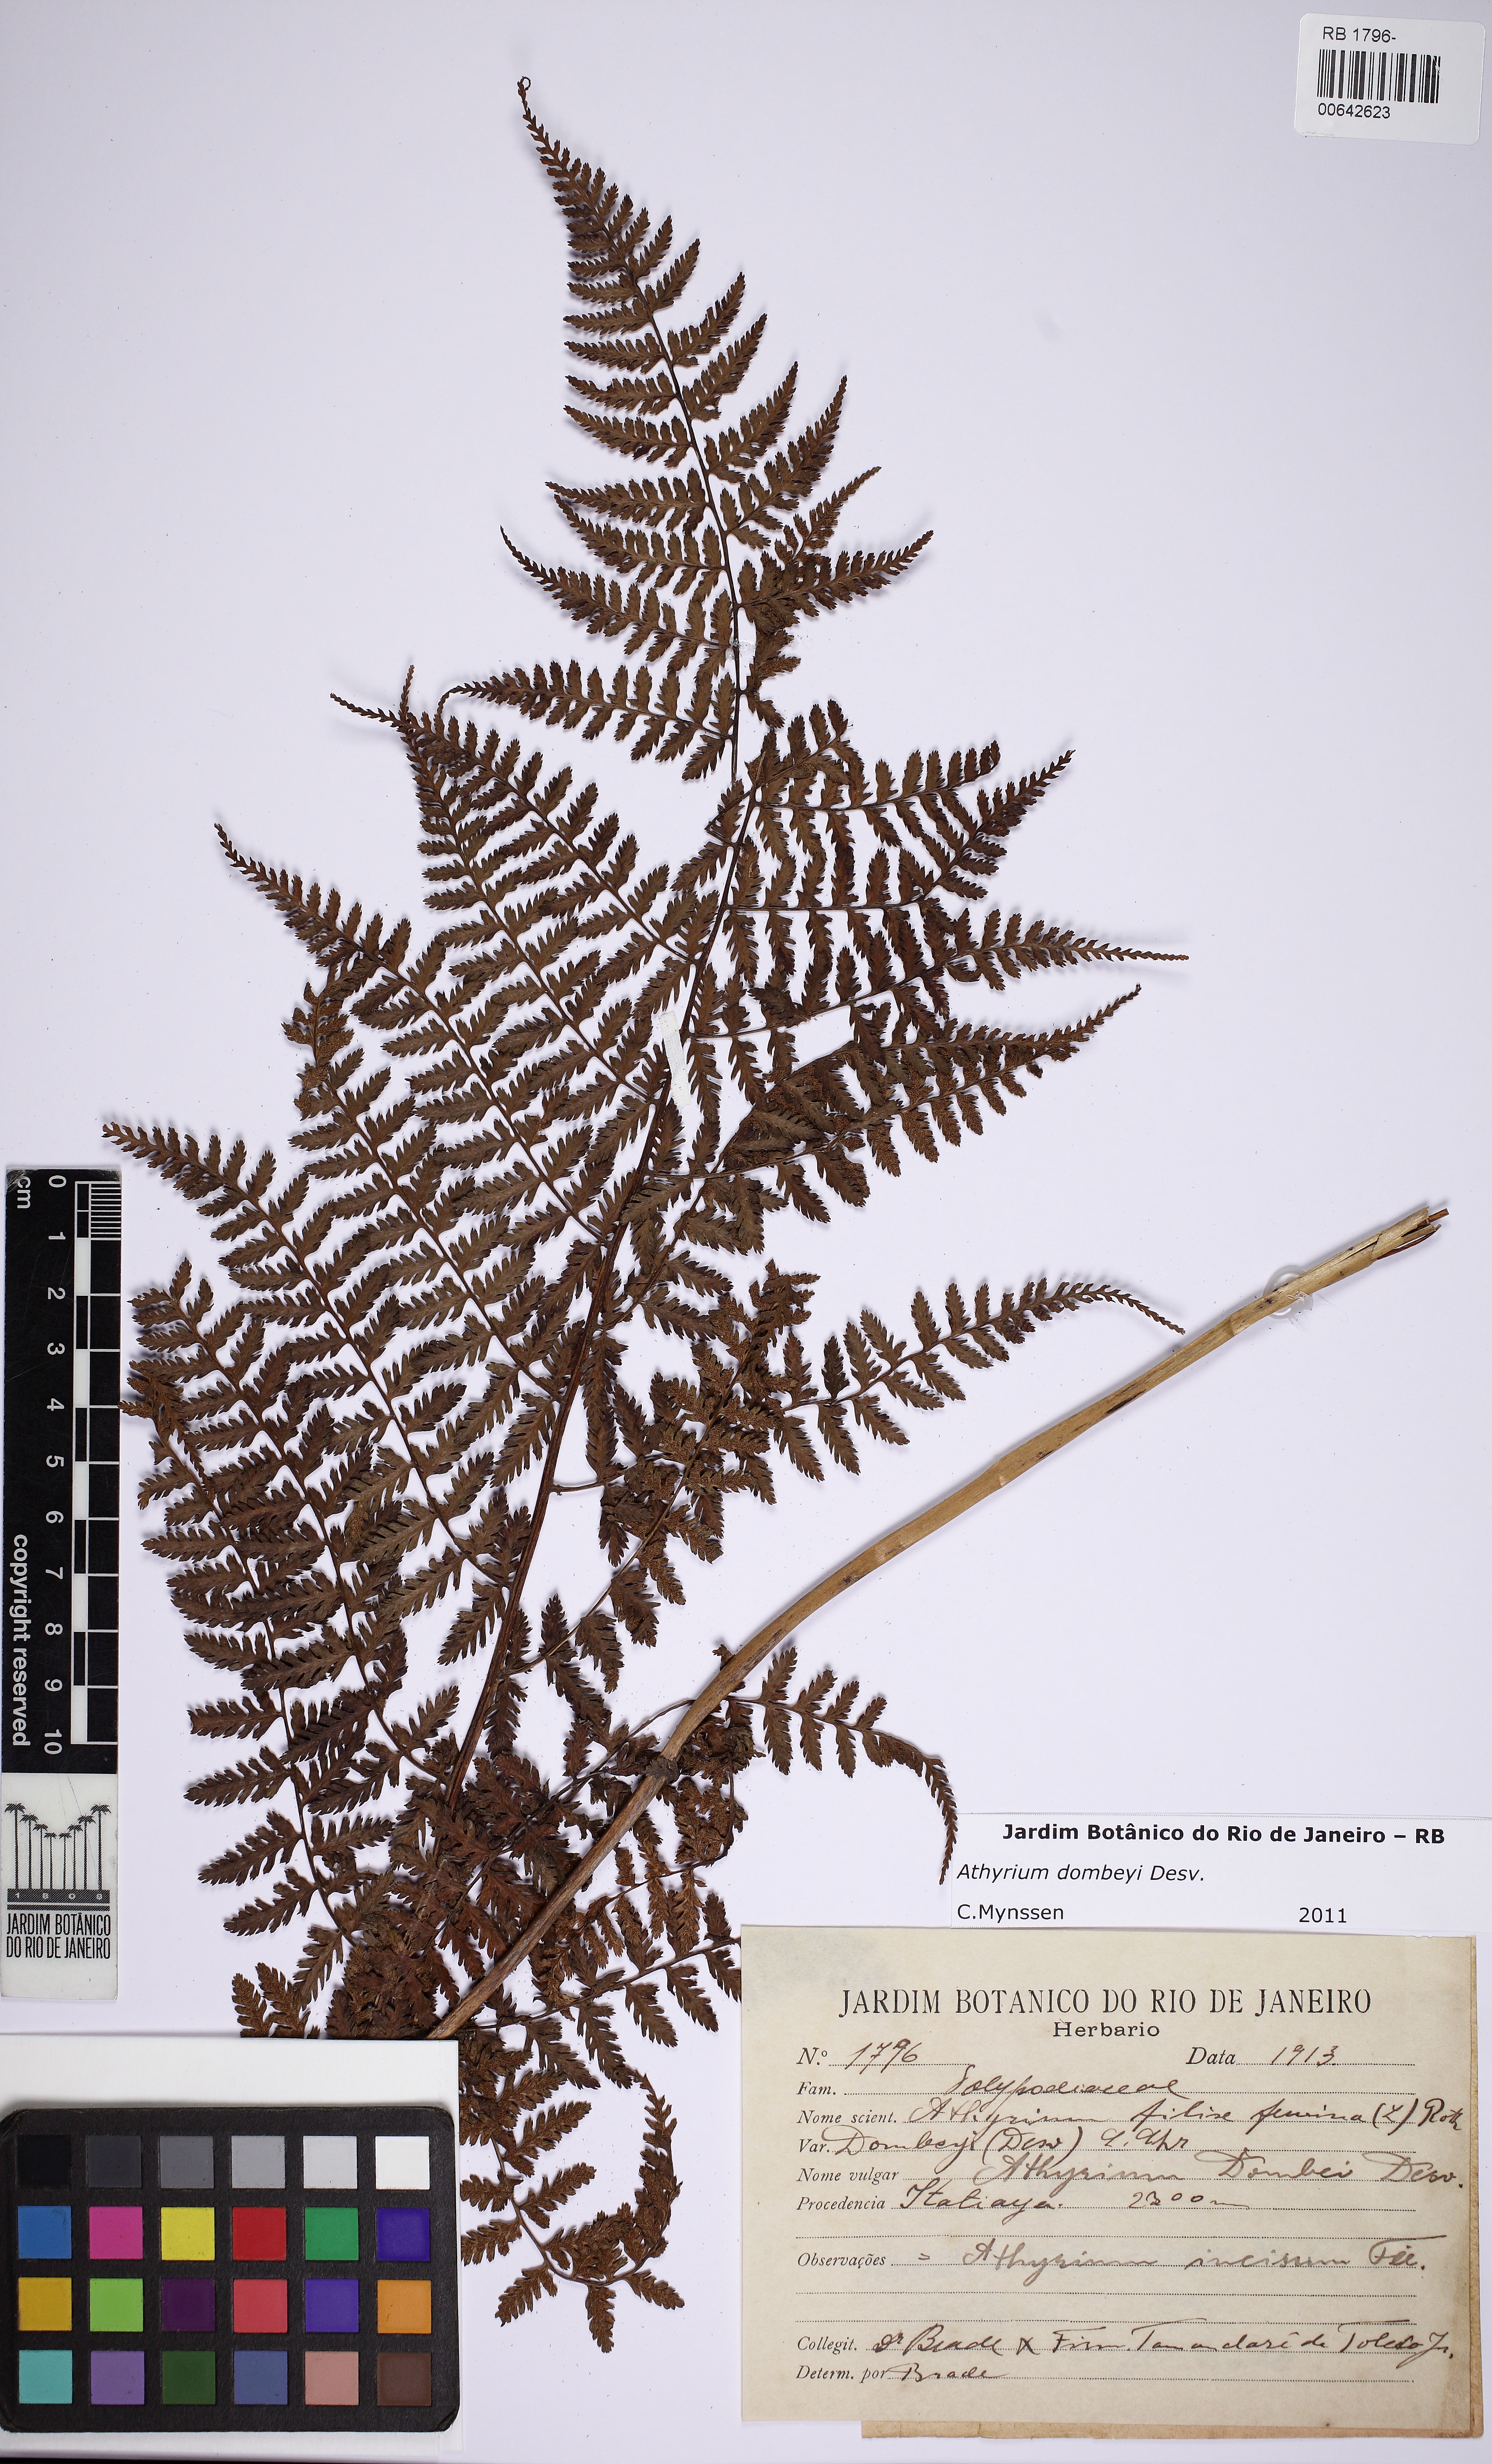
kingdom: Plantae
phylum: Tracheophyta
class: Polypodiopsida
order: Polypodiales
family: Athyriaceae
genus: Athyrium
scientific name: Athyrium dombeyi
